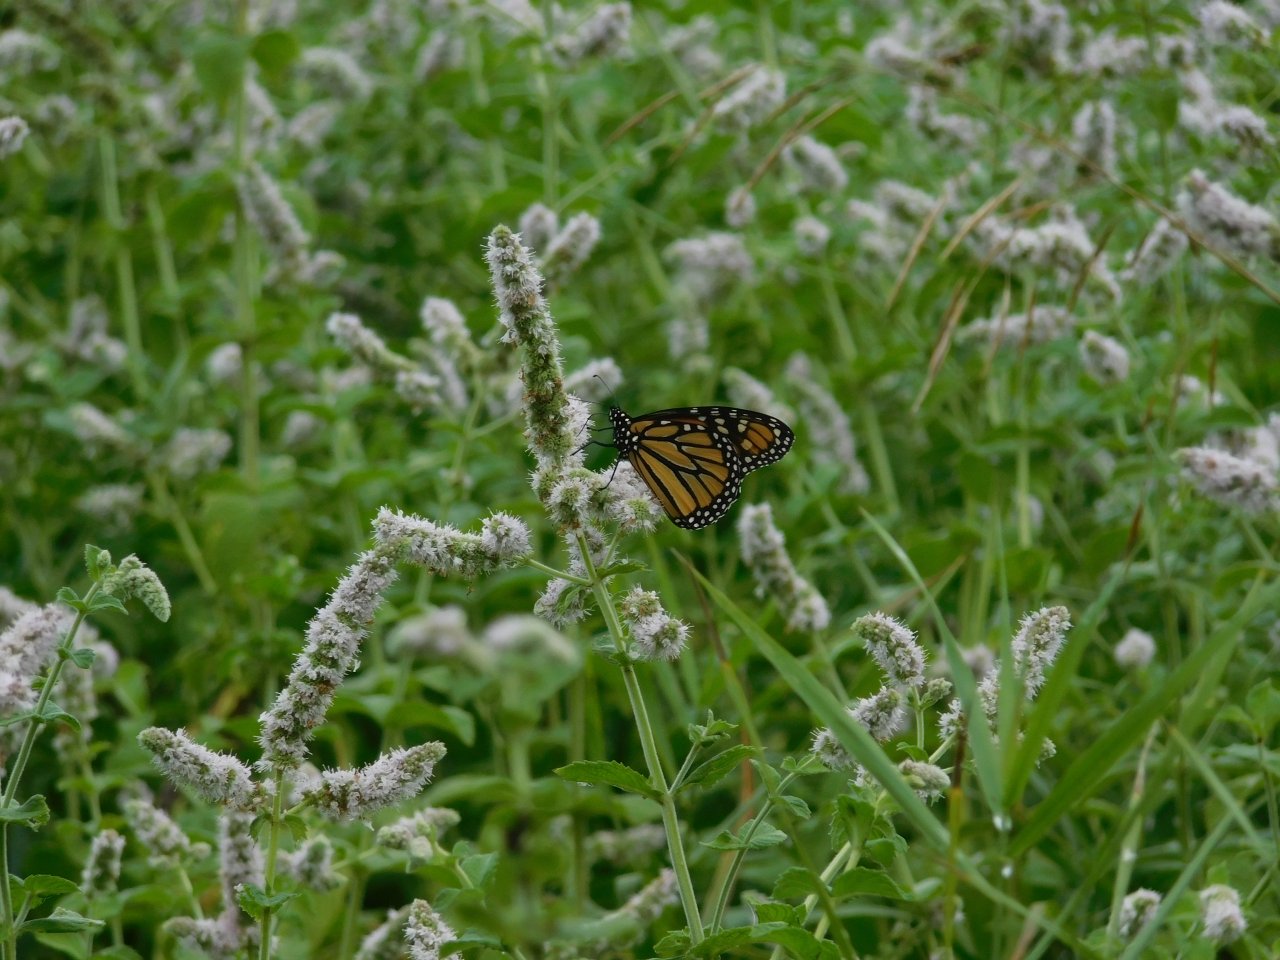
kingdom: Animalia
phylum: Arthropoda
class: Insecta
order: Lepidoptera
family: Nymphalidae
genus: Danaus
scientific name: Danaus plexippus
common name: Monarch
